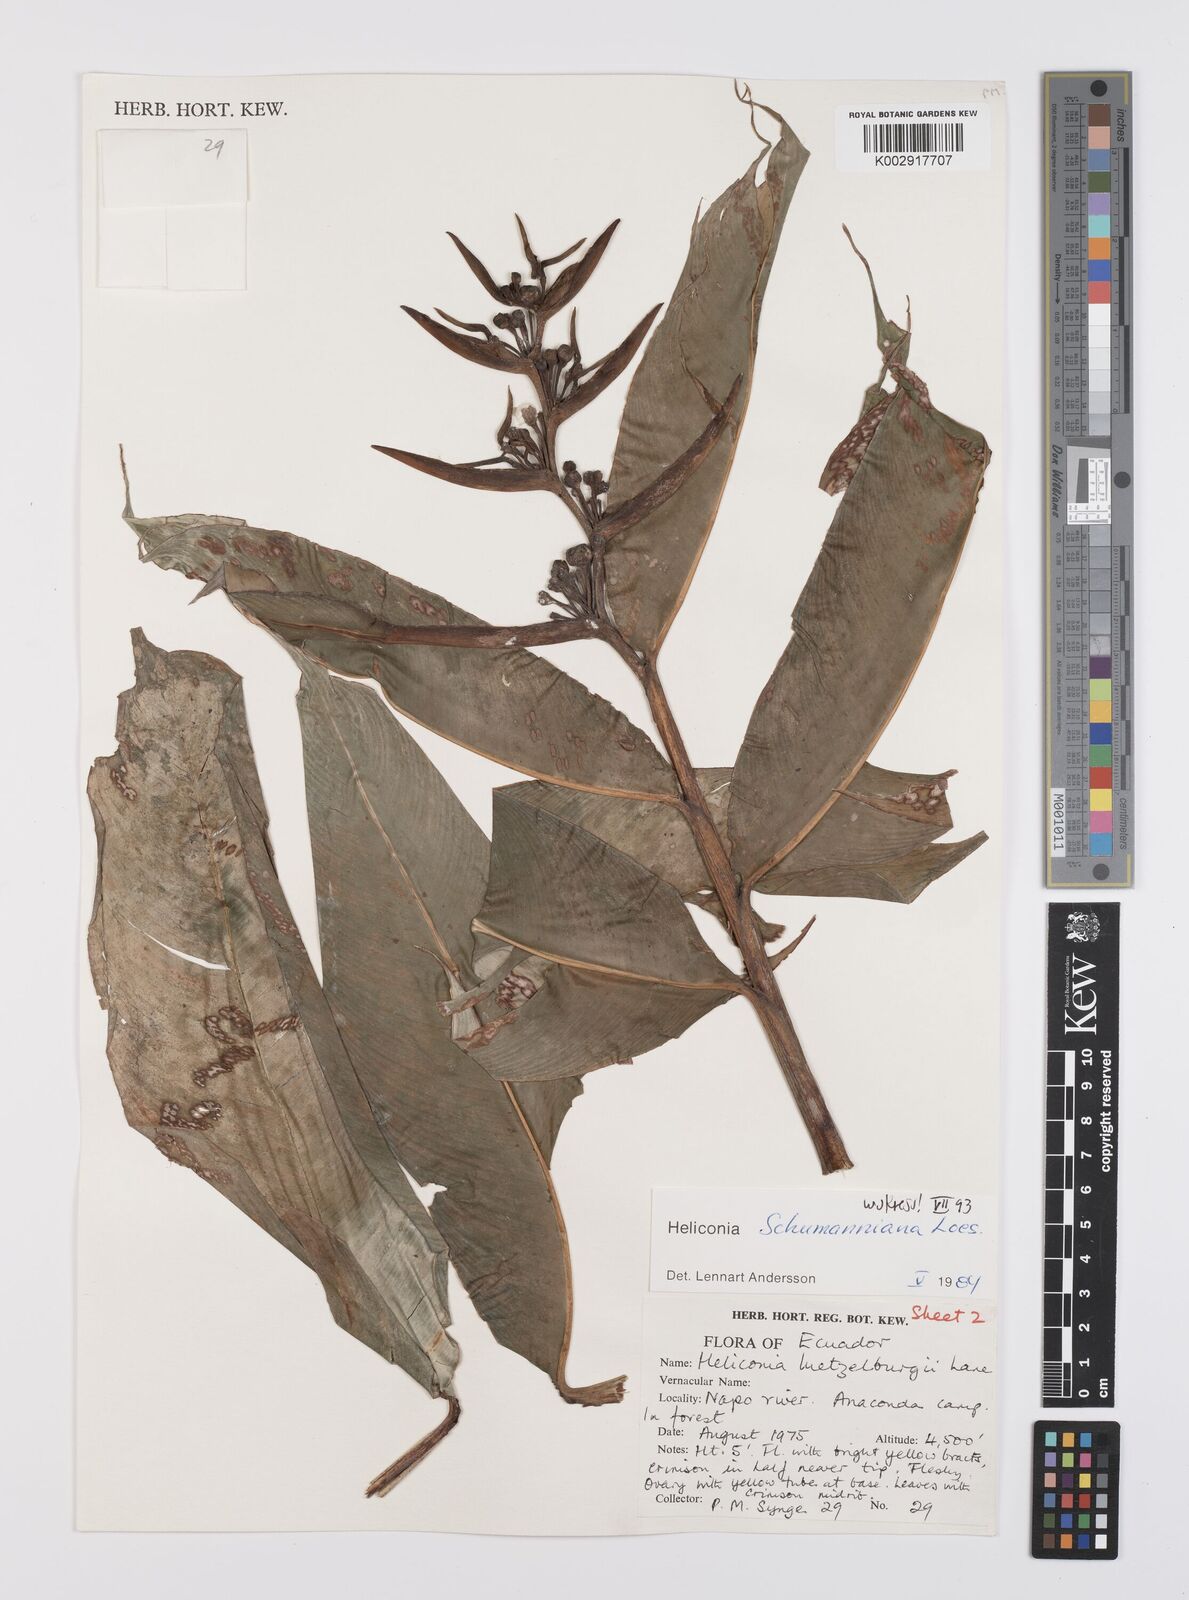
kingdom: Plantae
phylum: Tracheophyta
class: Liliopsida
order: Zingiberales
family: Heliconiaceae
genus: Heliconia
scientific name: Heliconia schumanniana
